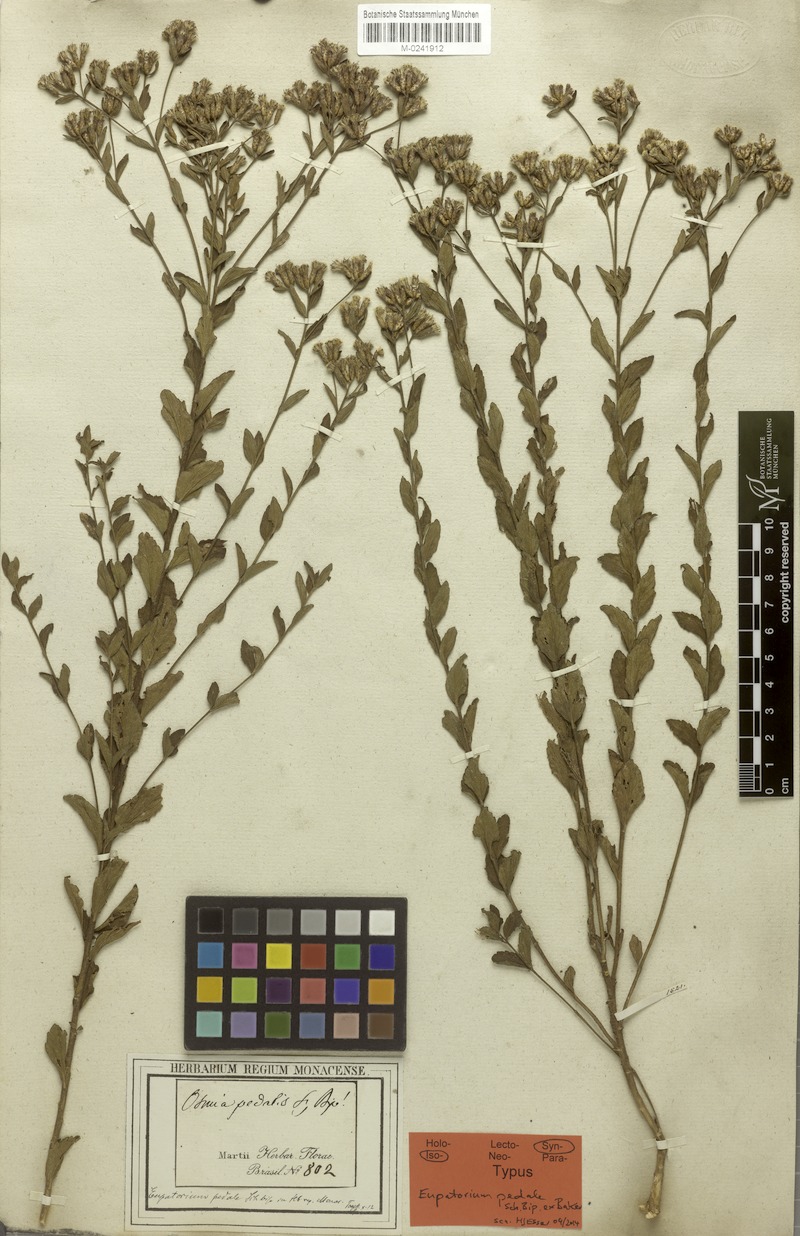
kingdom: Plantae
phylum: Tracheophyta
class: Magnoliopsida
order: Asterales
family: Asteraceae
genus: Chromolaena
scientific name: Chromolaena pedalis
